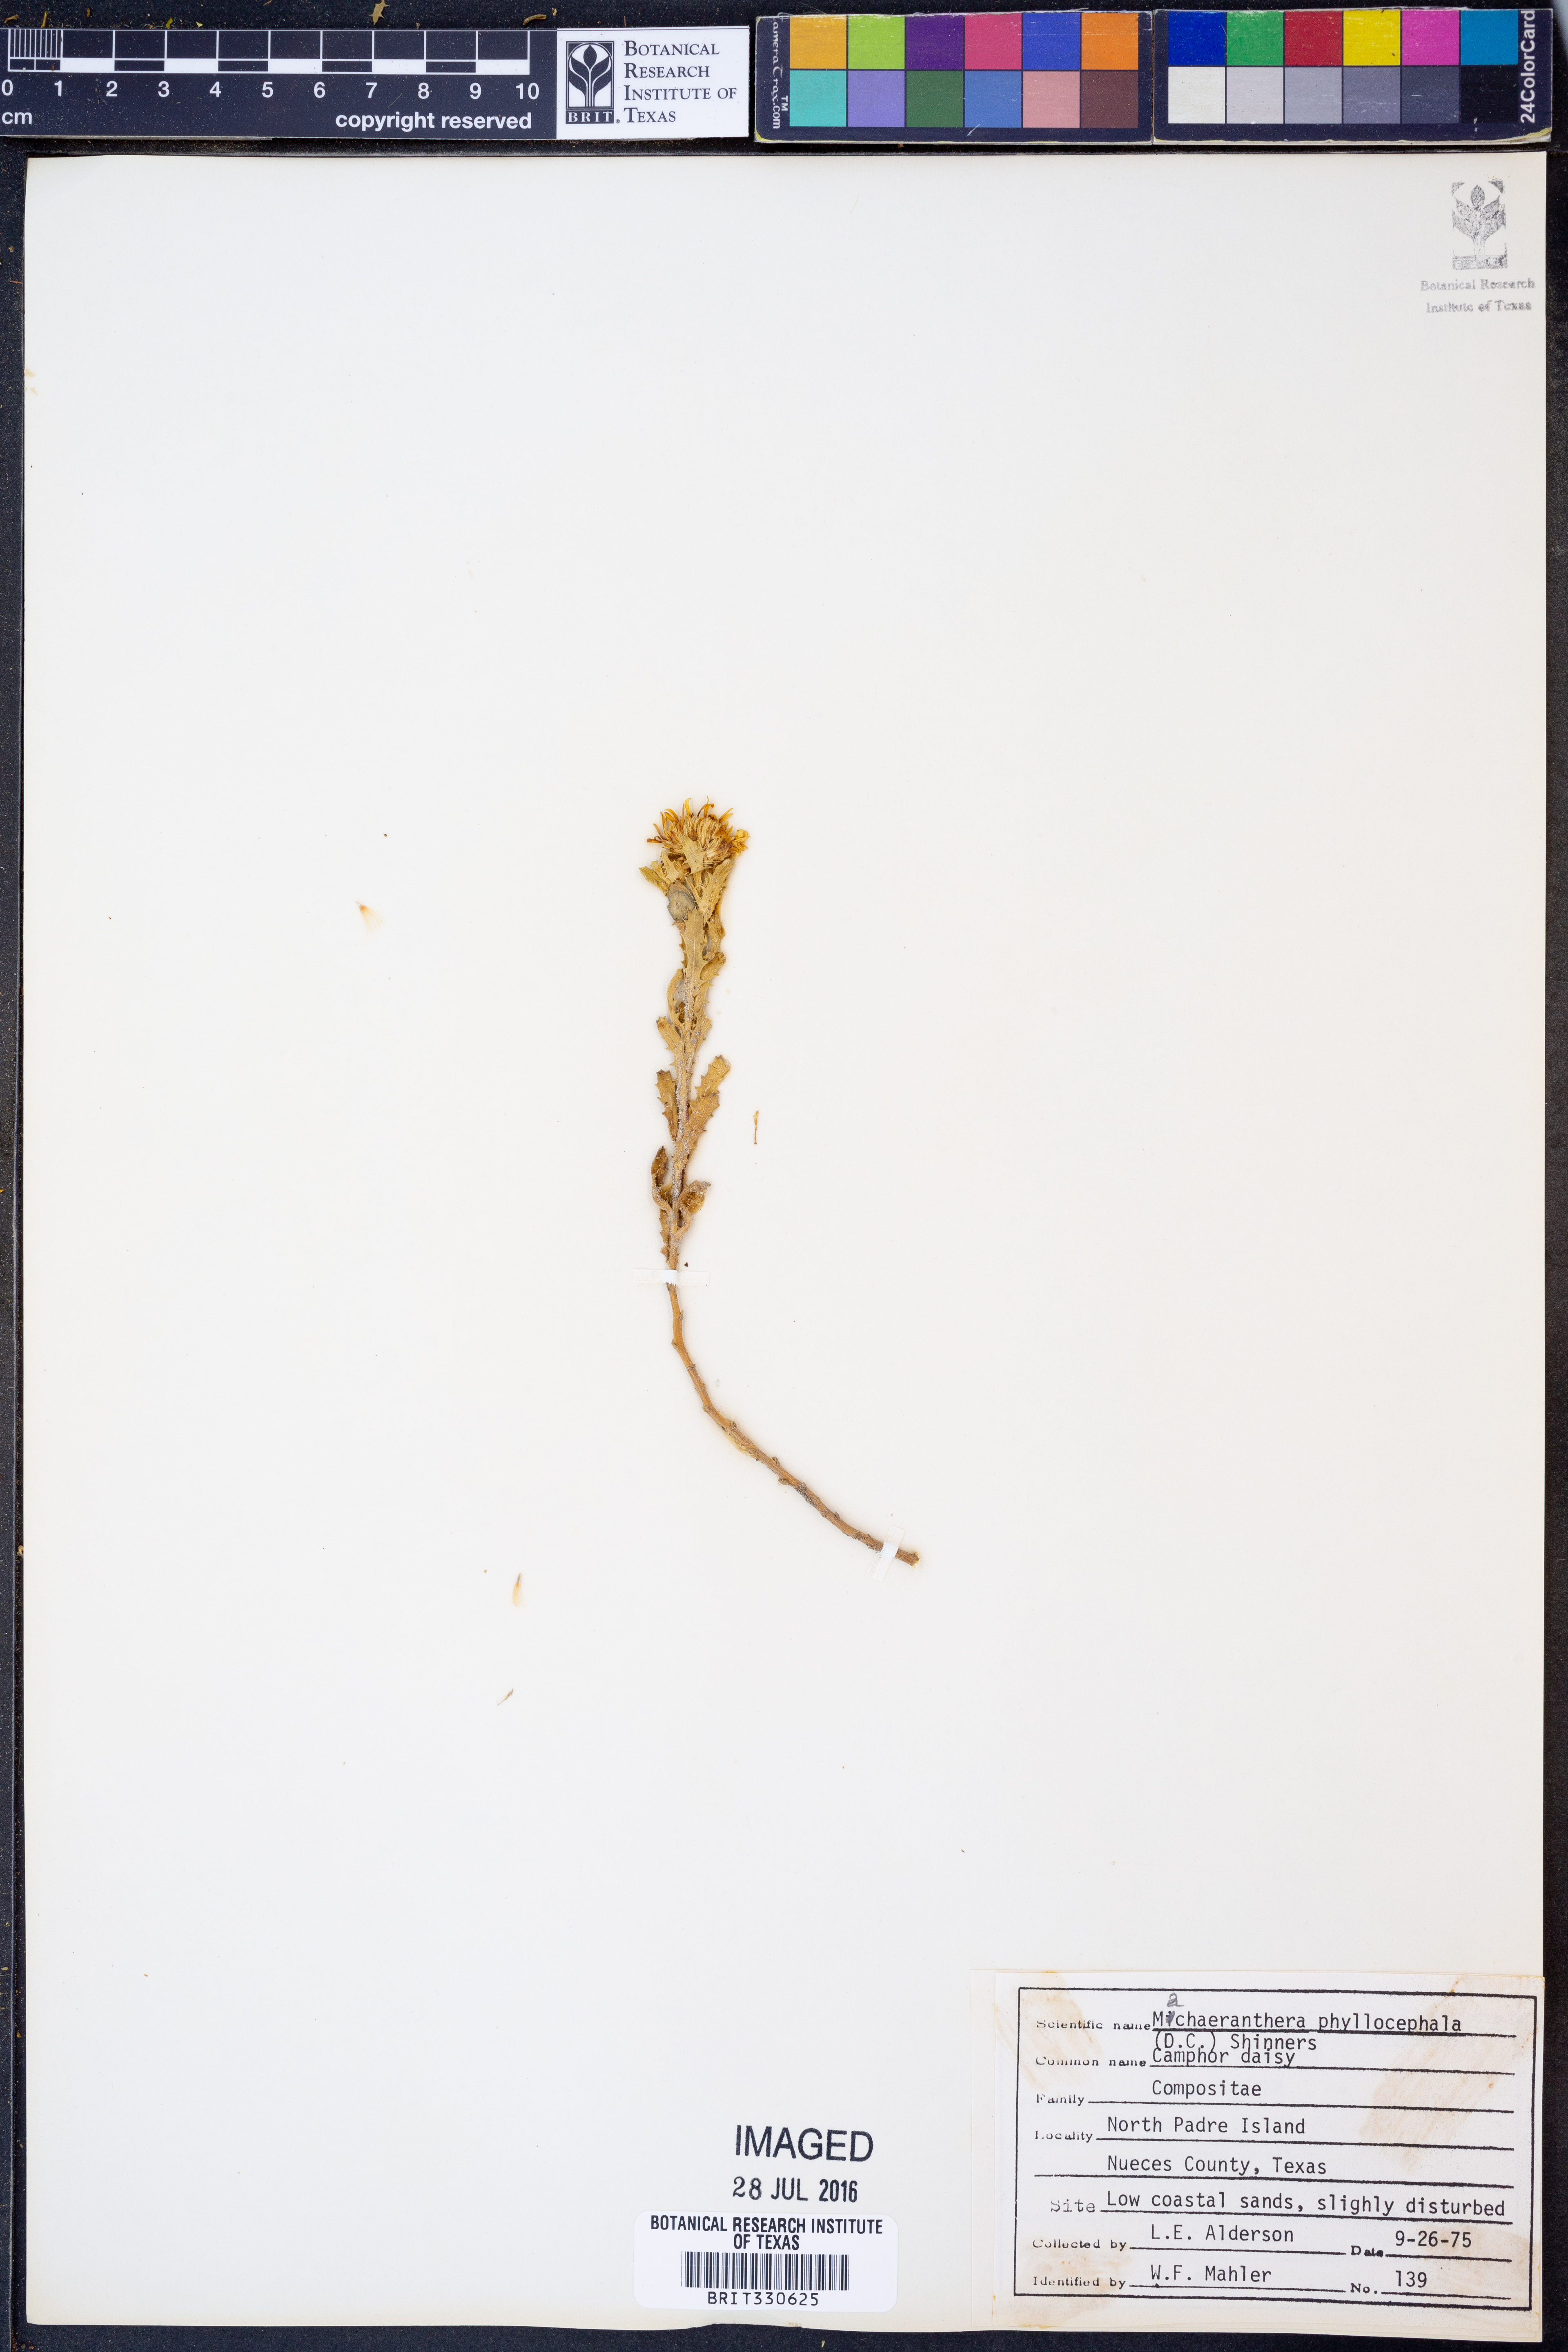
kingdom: Plantae
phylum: Tracheophyta
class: Magnoliopsida
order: Asterales
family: Asteraceae
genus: Rayjacksonia
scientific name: Rayjacksonia phyllocephala
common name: Gulf coast camphor daisy
